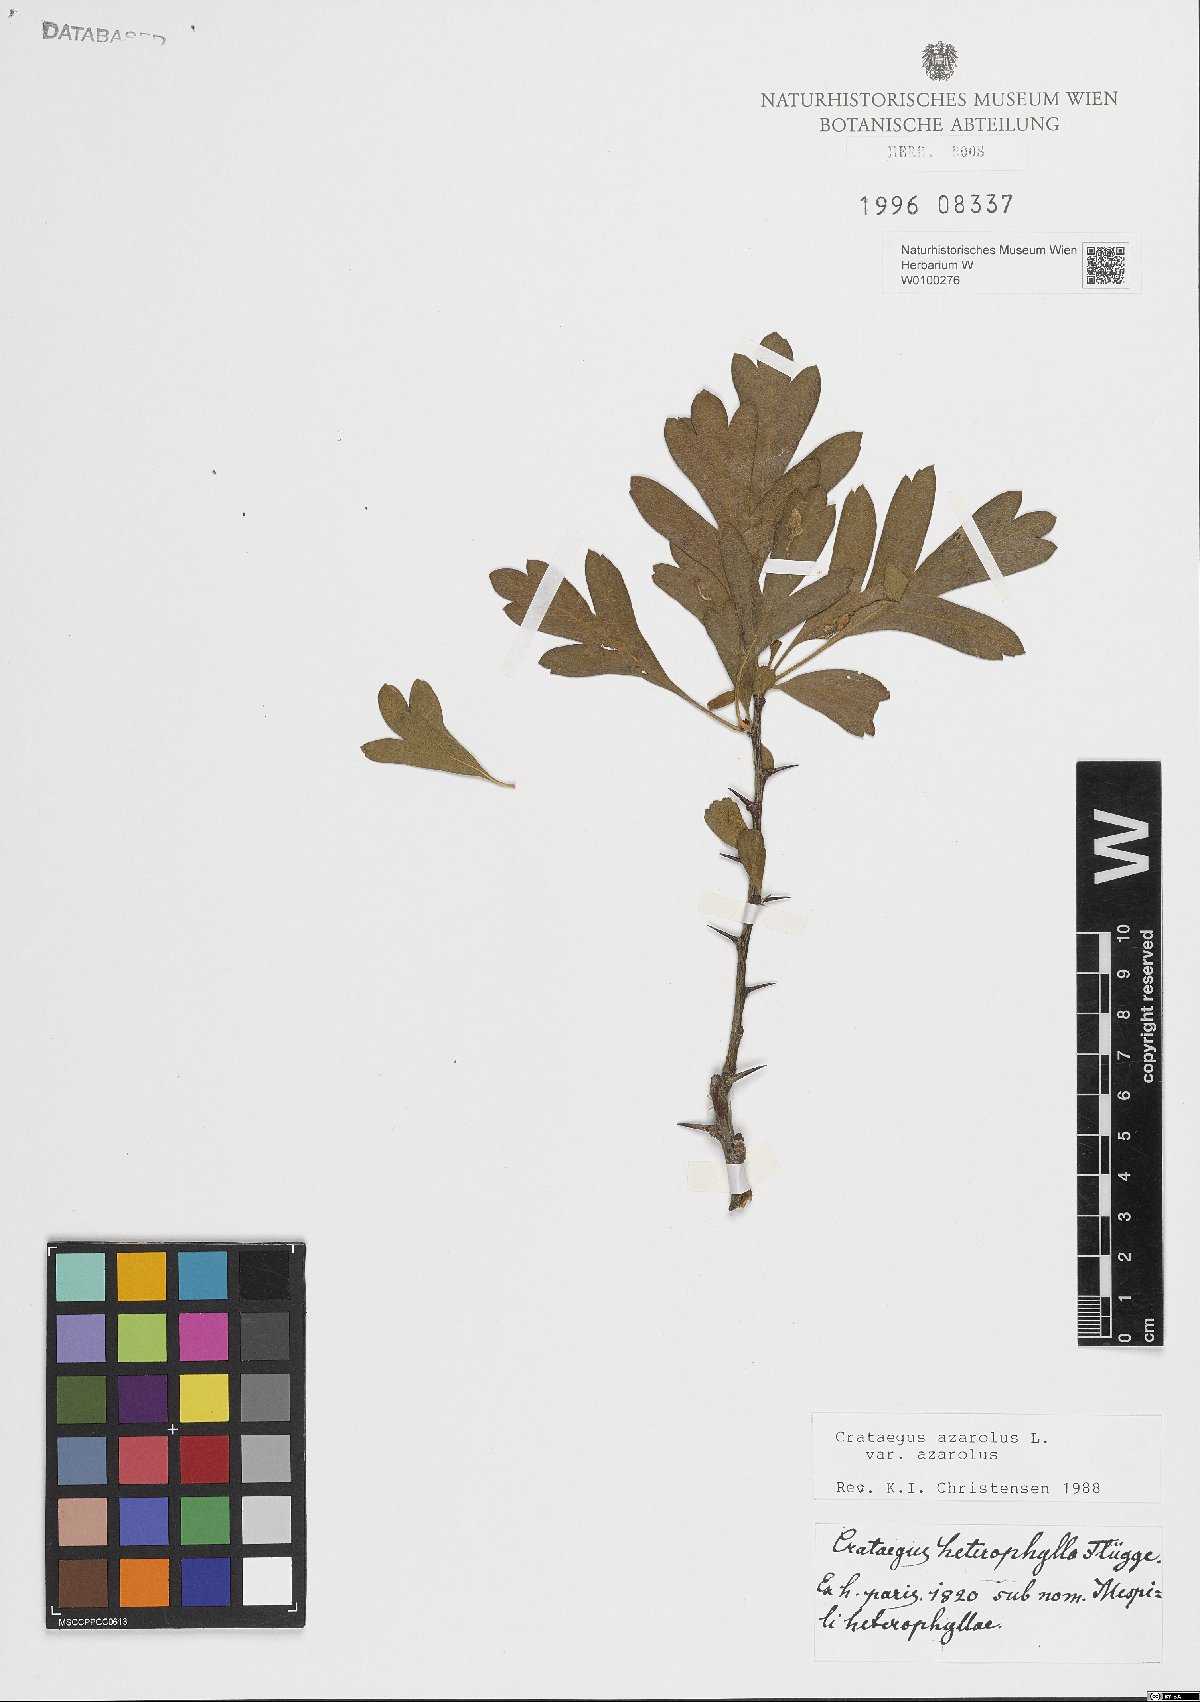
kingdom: Plantae
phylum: Tracheophyta
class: Magnoliopsida
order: Rosales
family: Rosaceae
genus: Crataegus
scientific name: Crataegus azarolus
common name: Azarole
